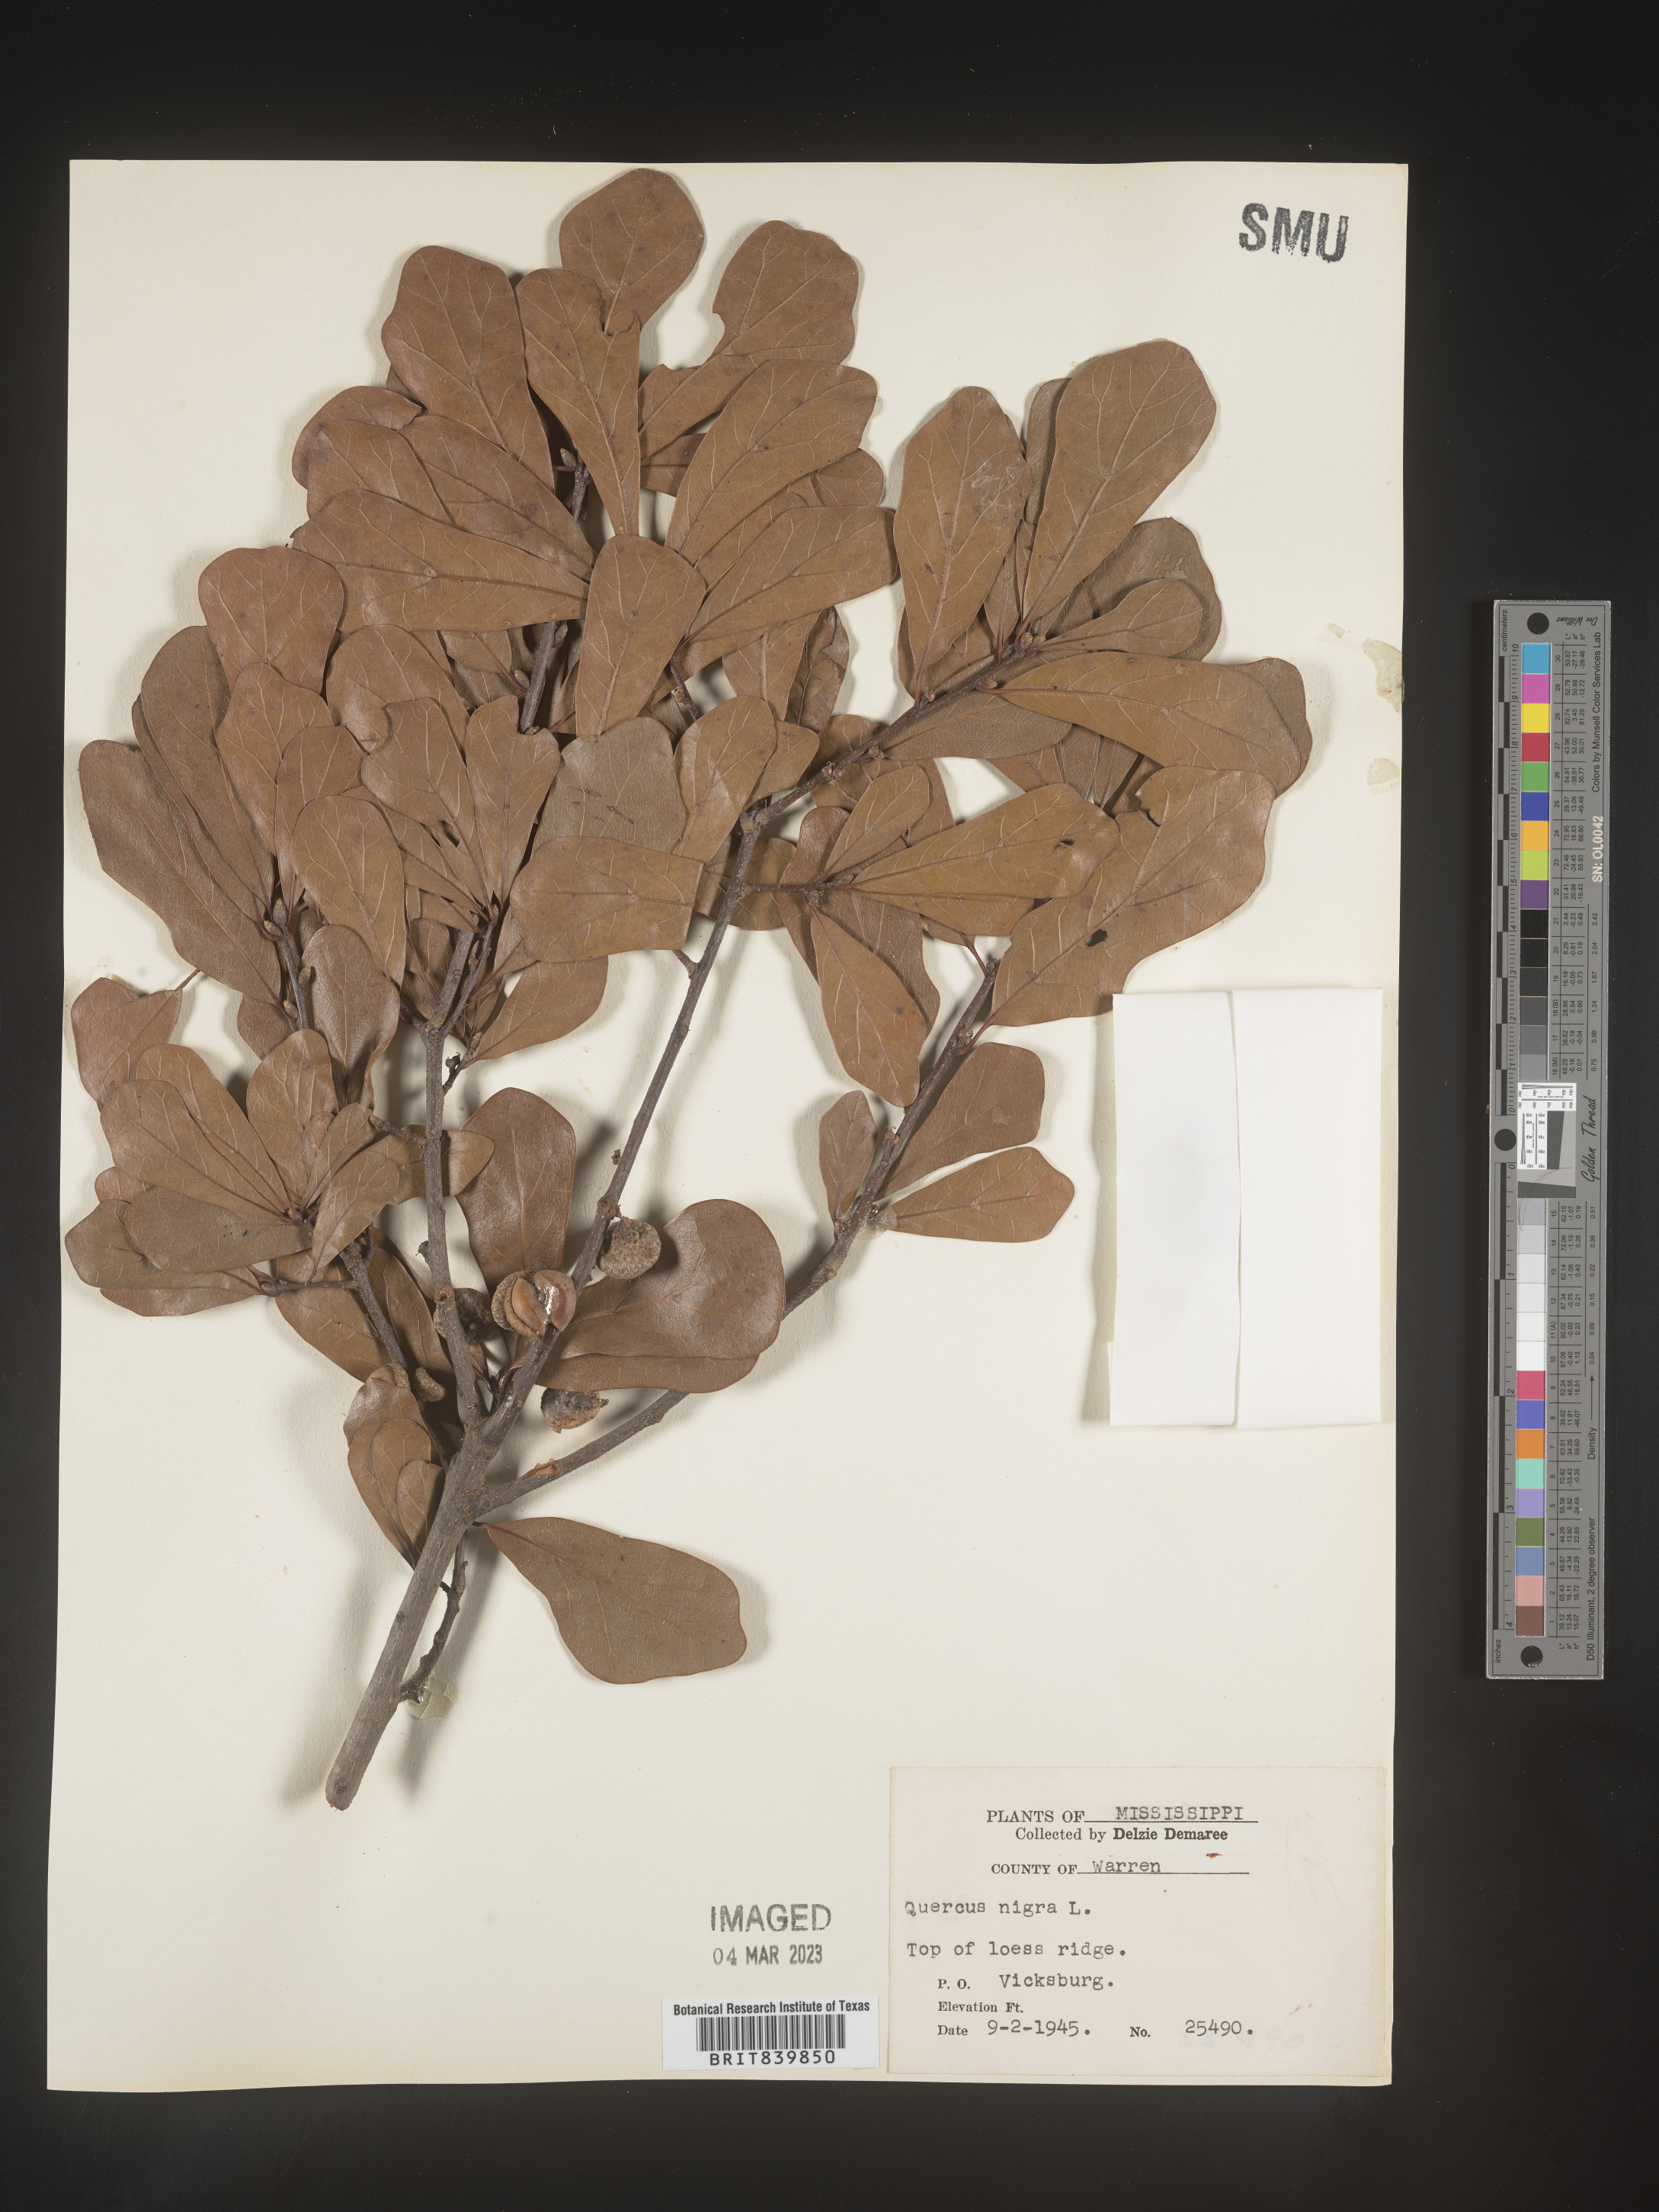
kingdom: Plantae
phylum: Tracheophyta
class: Magnoliopsida
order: Fagales
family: Fagaceae
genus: Quercus
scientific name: Quercus nigra
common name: Water oak
